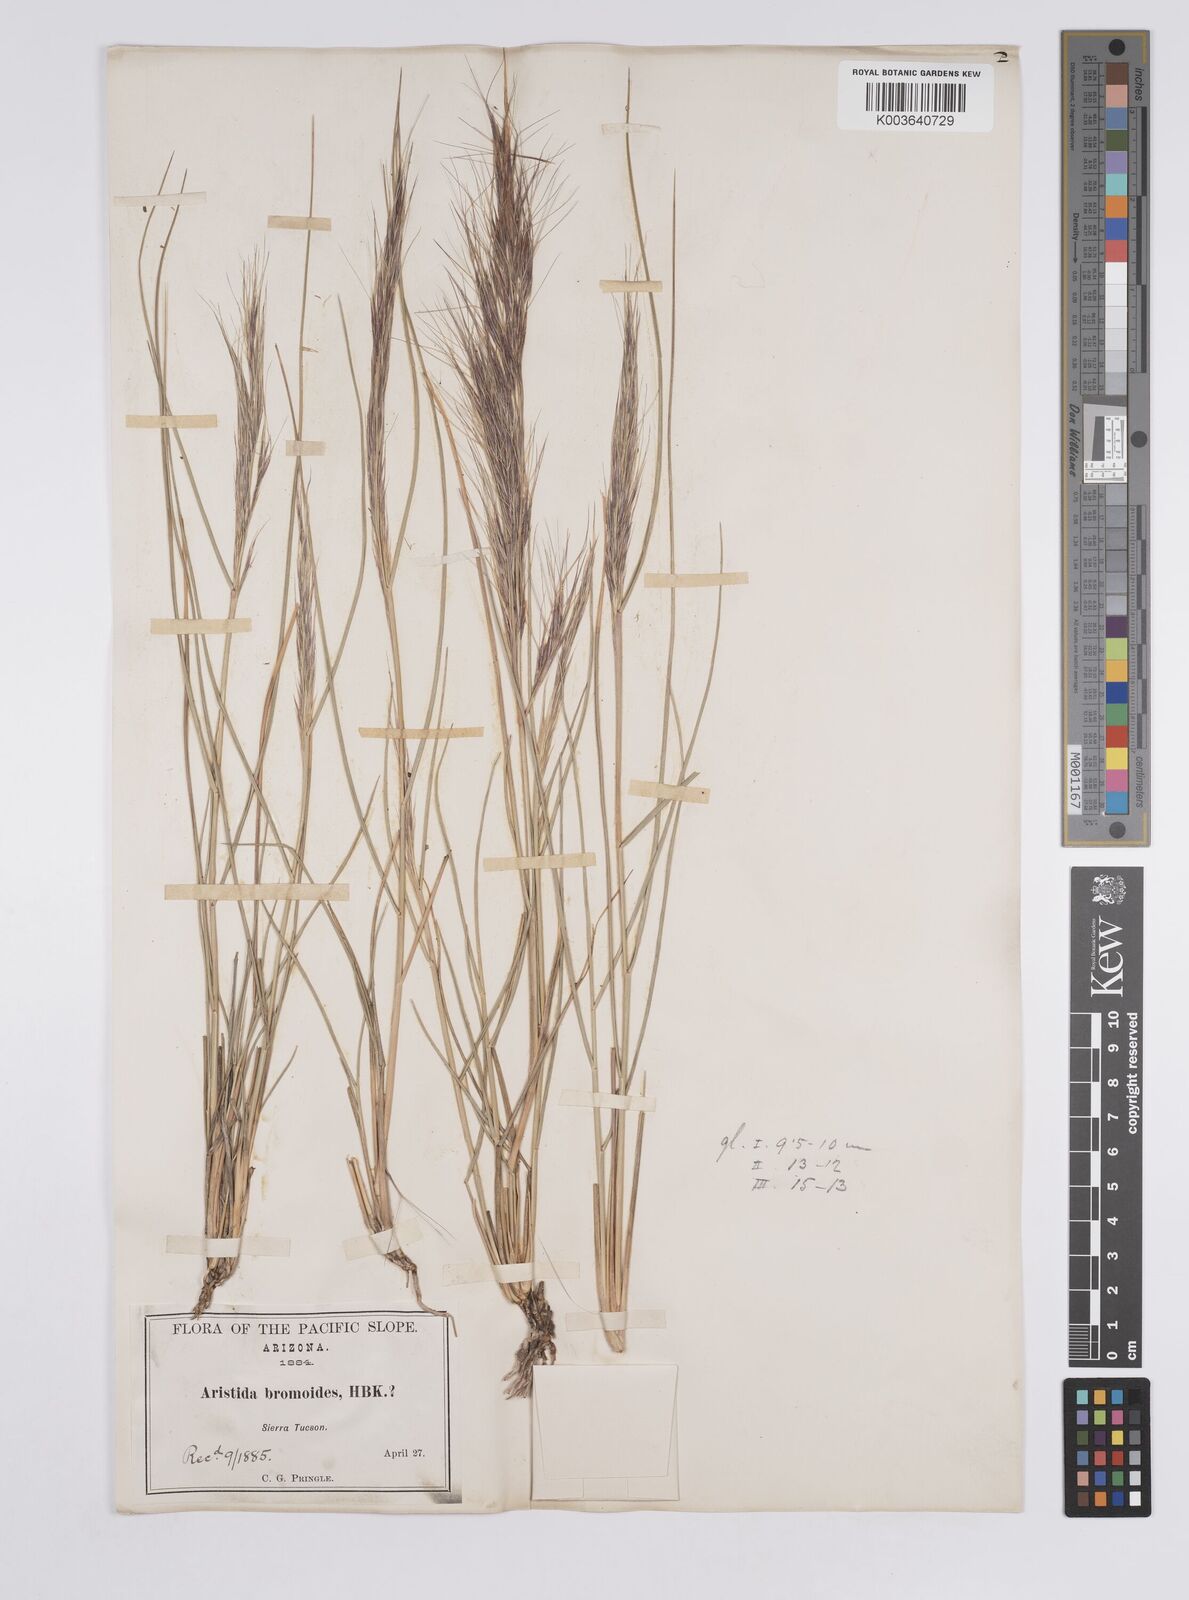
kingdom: Plantae
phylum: Tracheophyta
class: Liliopsida
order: Poales
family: Poaceae
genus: Aristida
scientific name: Aristida adscensionis
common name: Sixweeks threeawn
